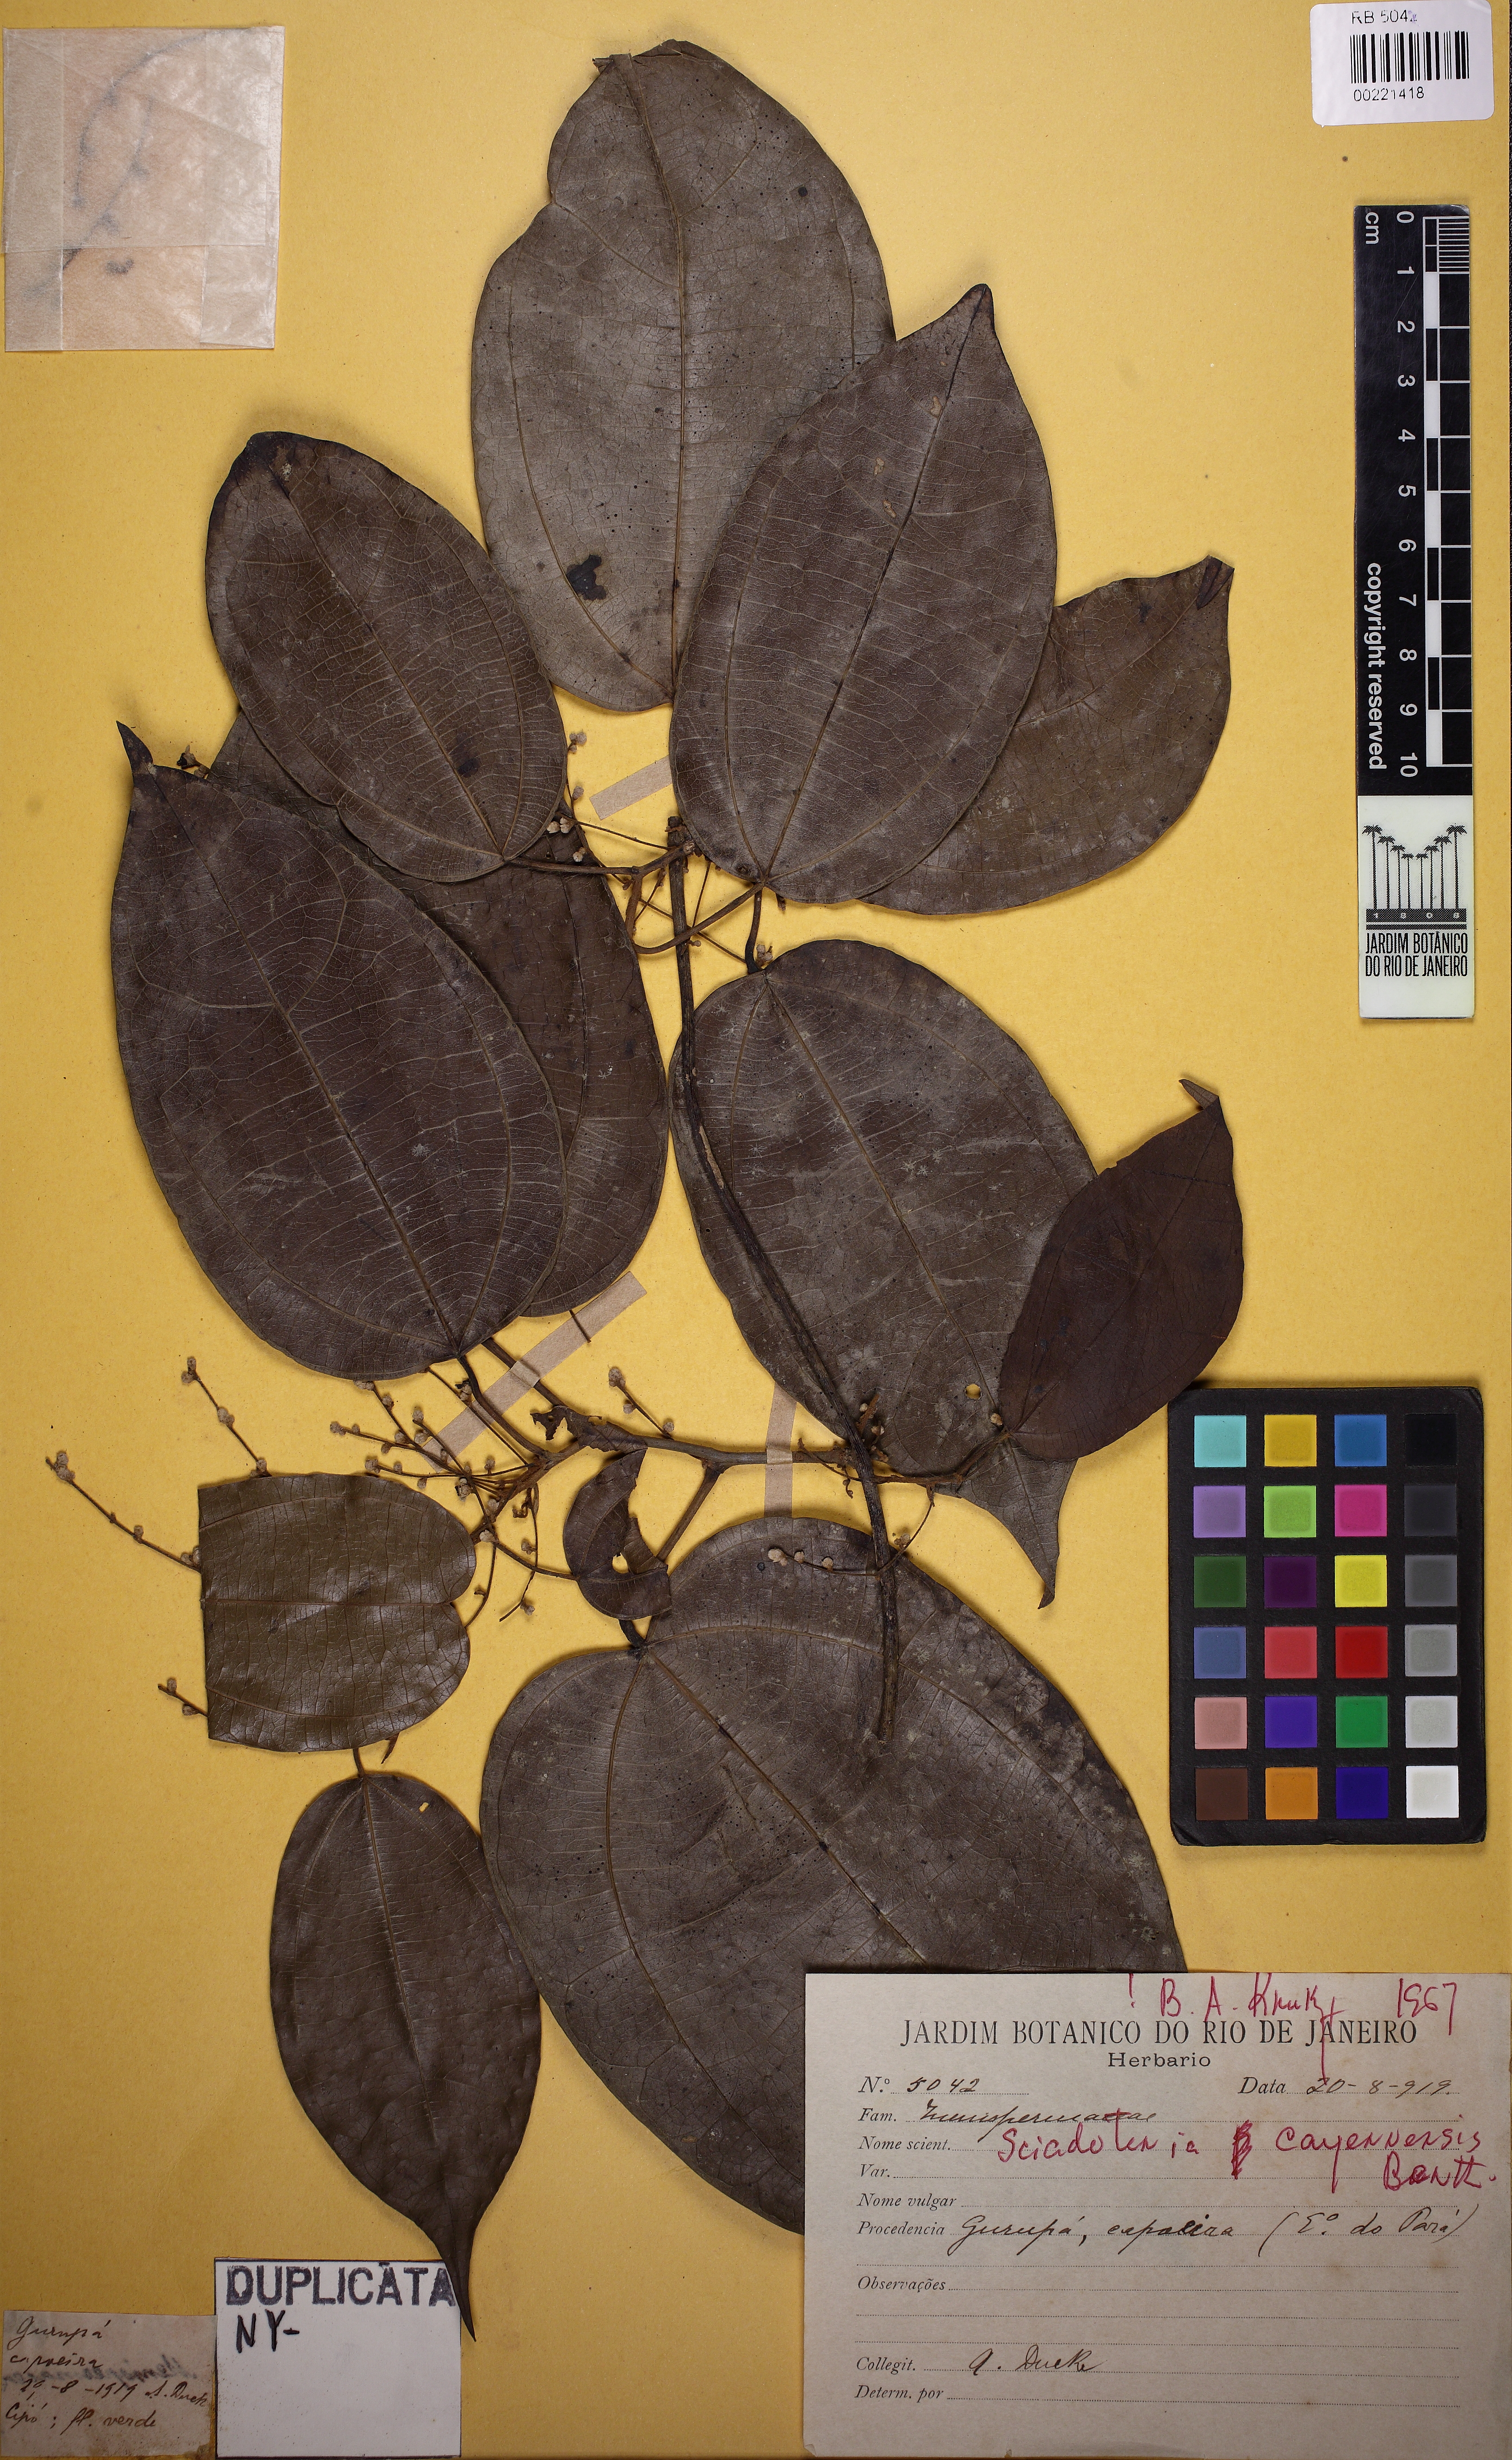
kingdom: Plantae
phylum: Tracheophyta
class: Magnoliopsida
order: Ranunculales
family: Menispermaceae
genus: Sciadotenia
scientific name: Sciadotenia cayennensis
